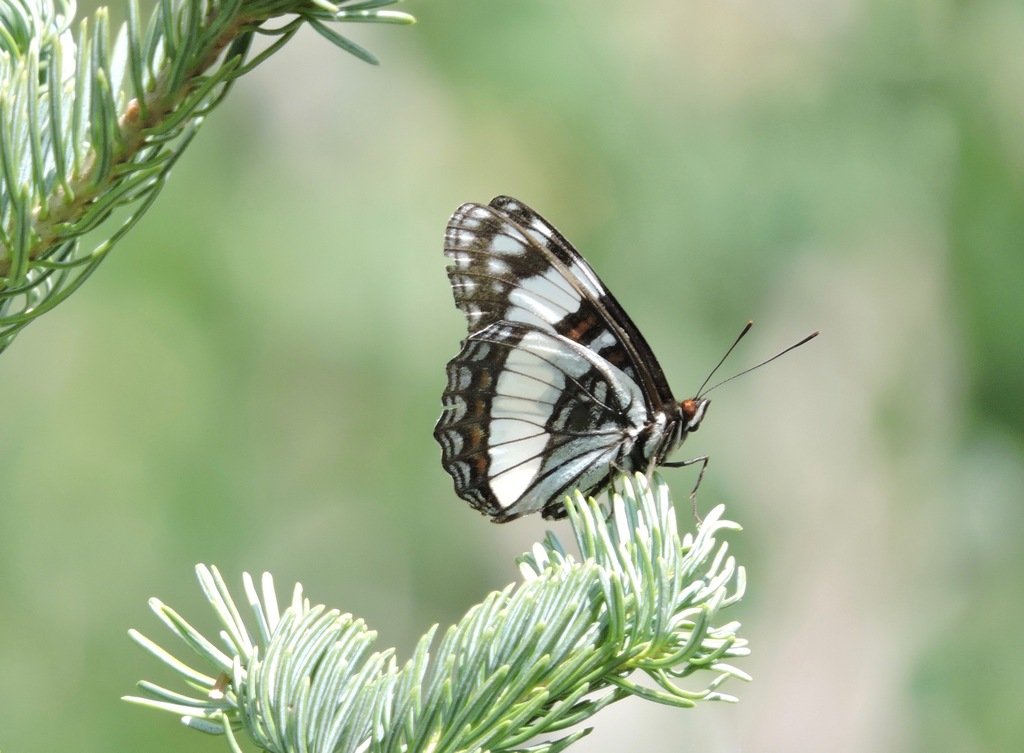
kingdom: Animalia
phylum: Arthropoda
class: Insecta
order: Lepidoptera
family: Nymphalidae
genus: Limenitis
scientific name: Limenitis weidemeyerii
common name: Weidemeyer's Admiral
